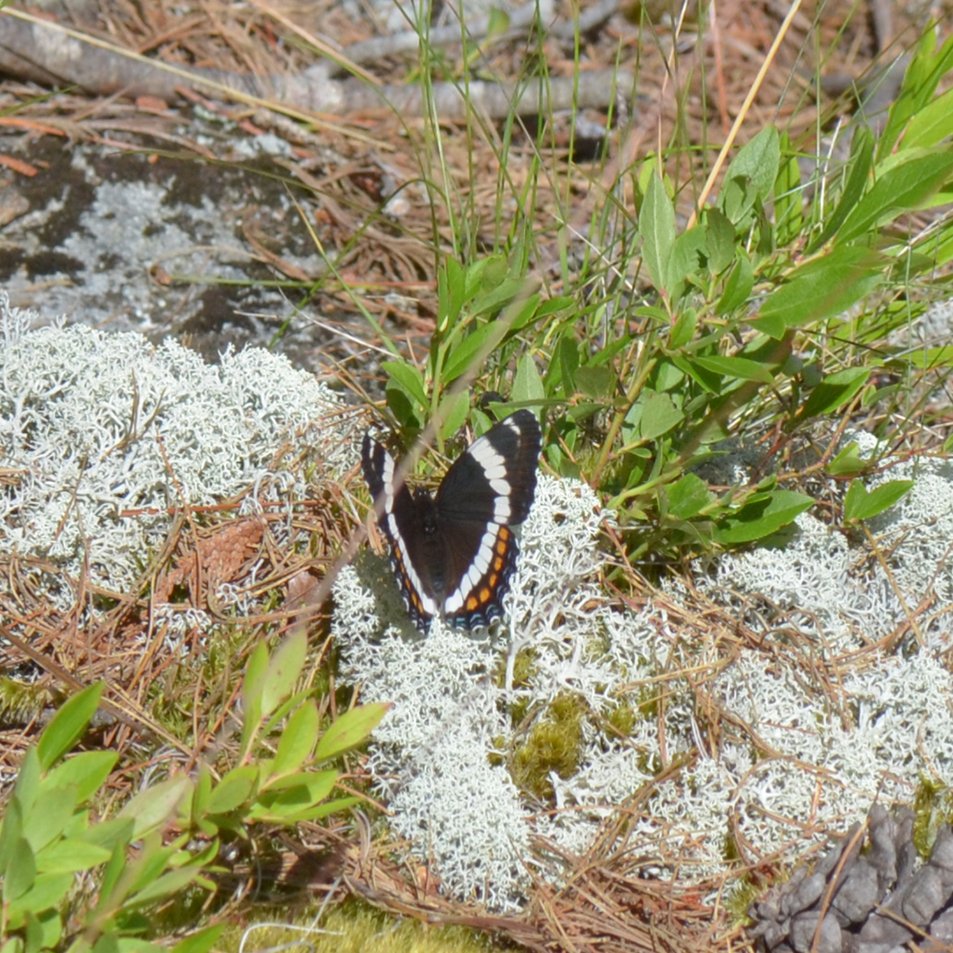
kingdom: Animalia
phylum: Arthropoda
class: Insecta
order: Lepidoptera
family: Nymphalidae
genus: Limenitis
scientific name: Limenitis arthemis
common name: Red-spotted Admiral
